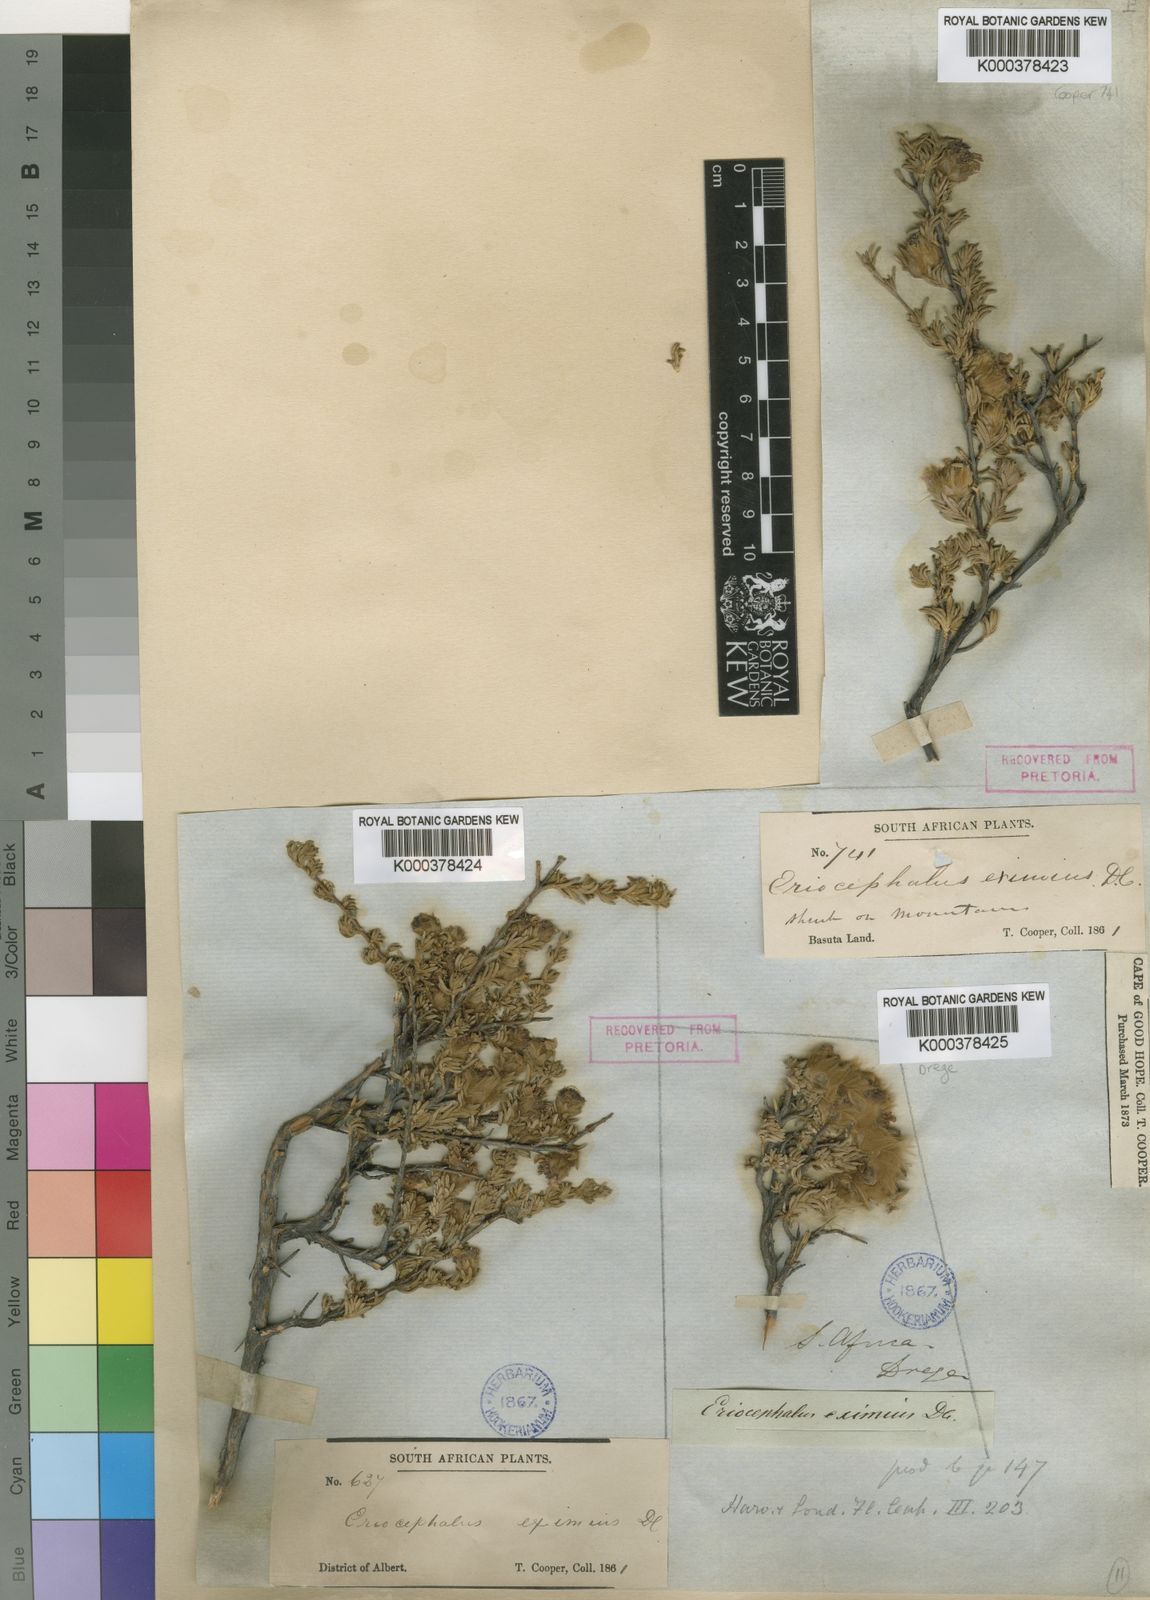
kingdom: Plantae
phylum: Tracheophyta
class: Magnoliopsida
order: Asterales
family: Asteraceae
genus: Eriocephalus
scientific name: Eriocephalus eximius
